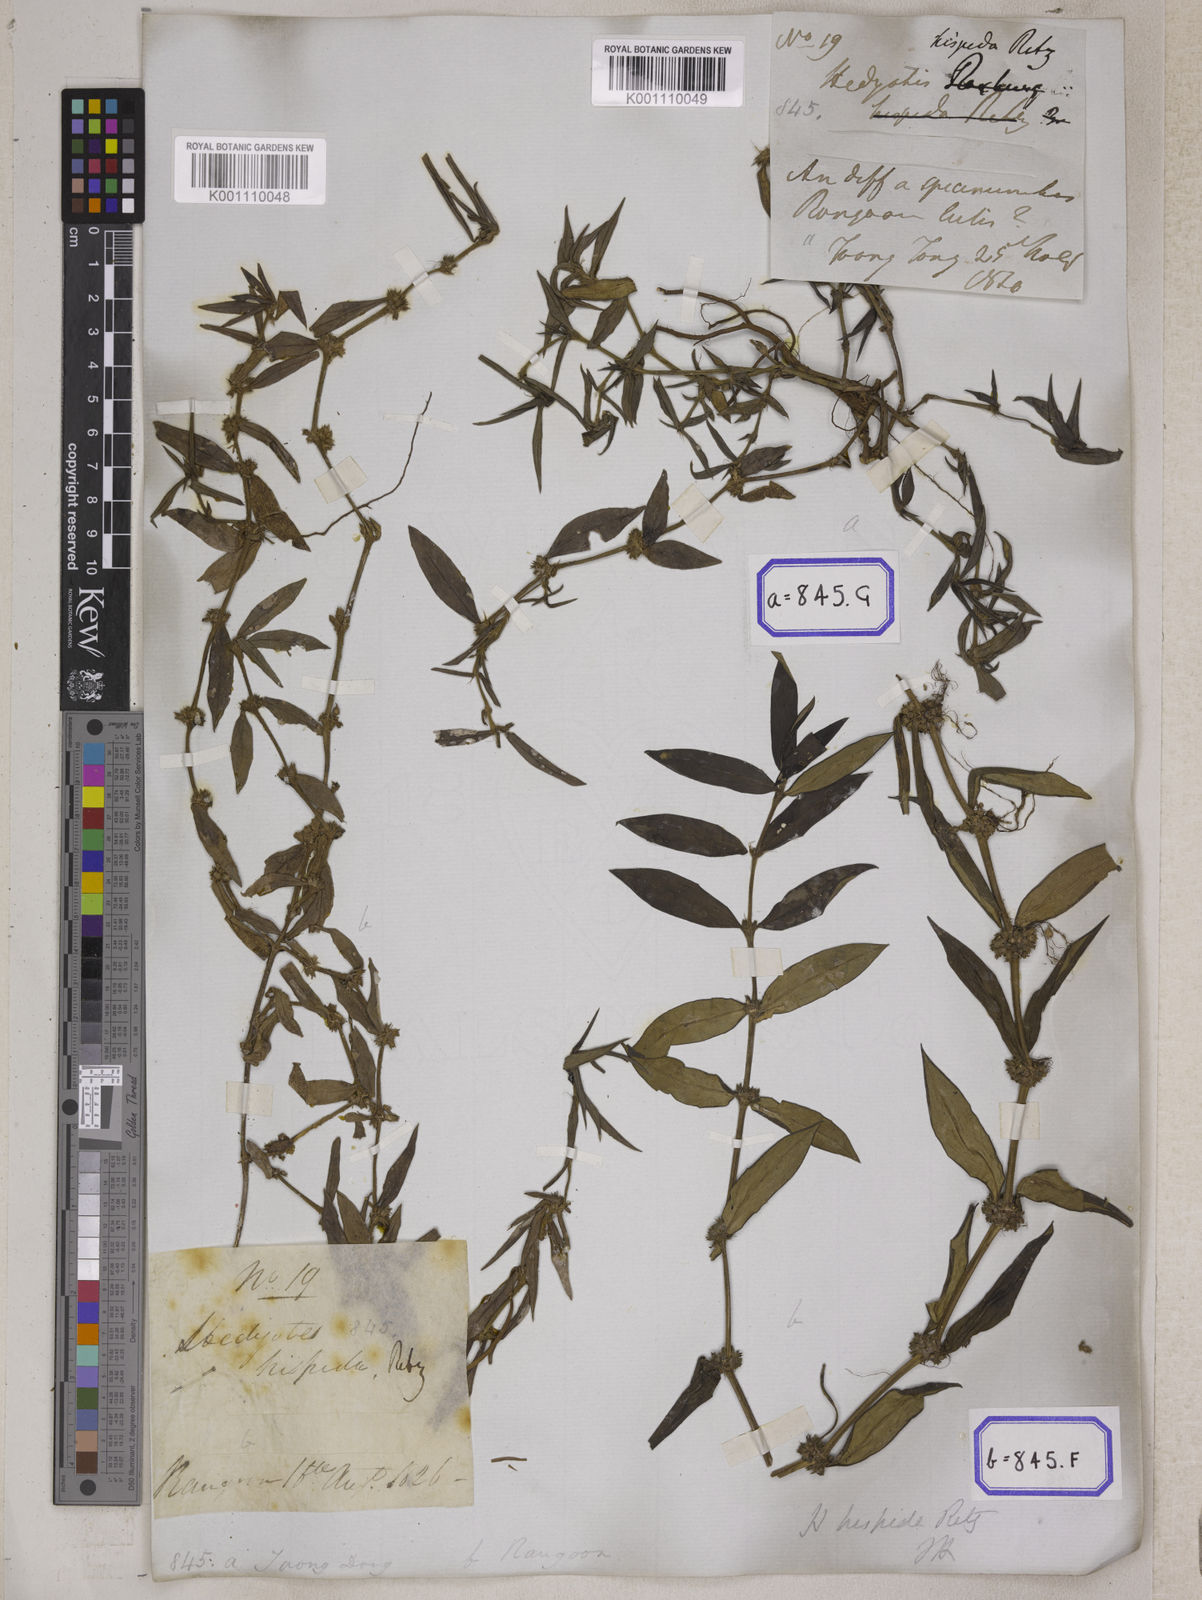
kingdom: Plantae
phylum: Tracheophyta
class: Magnoliopsida
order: Gentianales
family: Rubiaceae
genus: Scleromitrion
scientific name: Scleromitrion verticillatum
